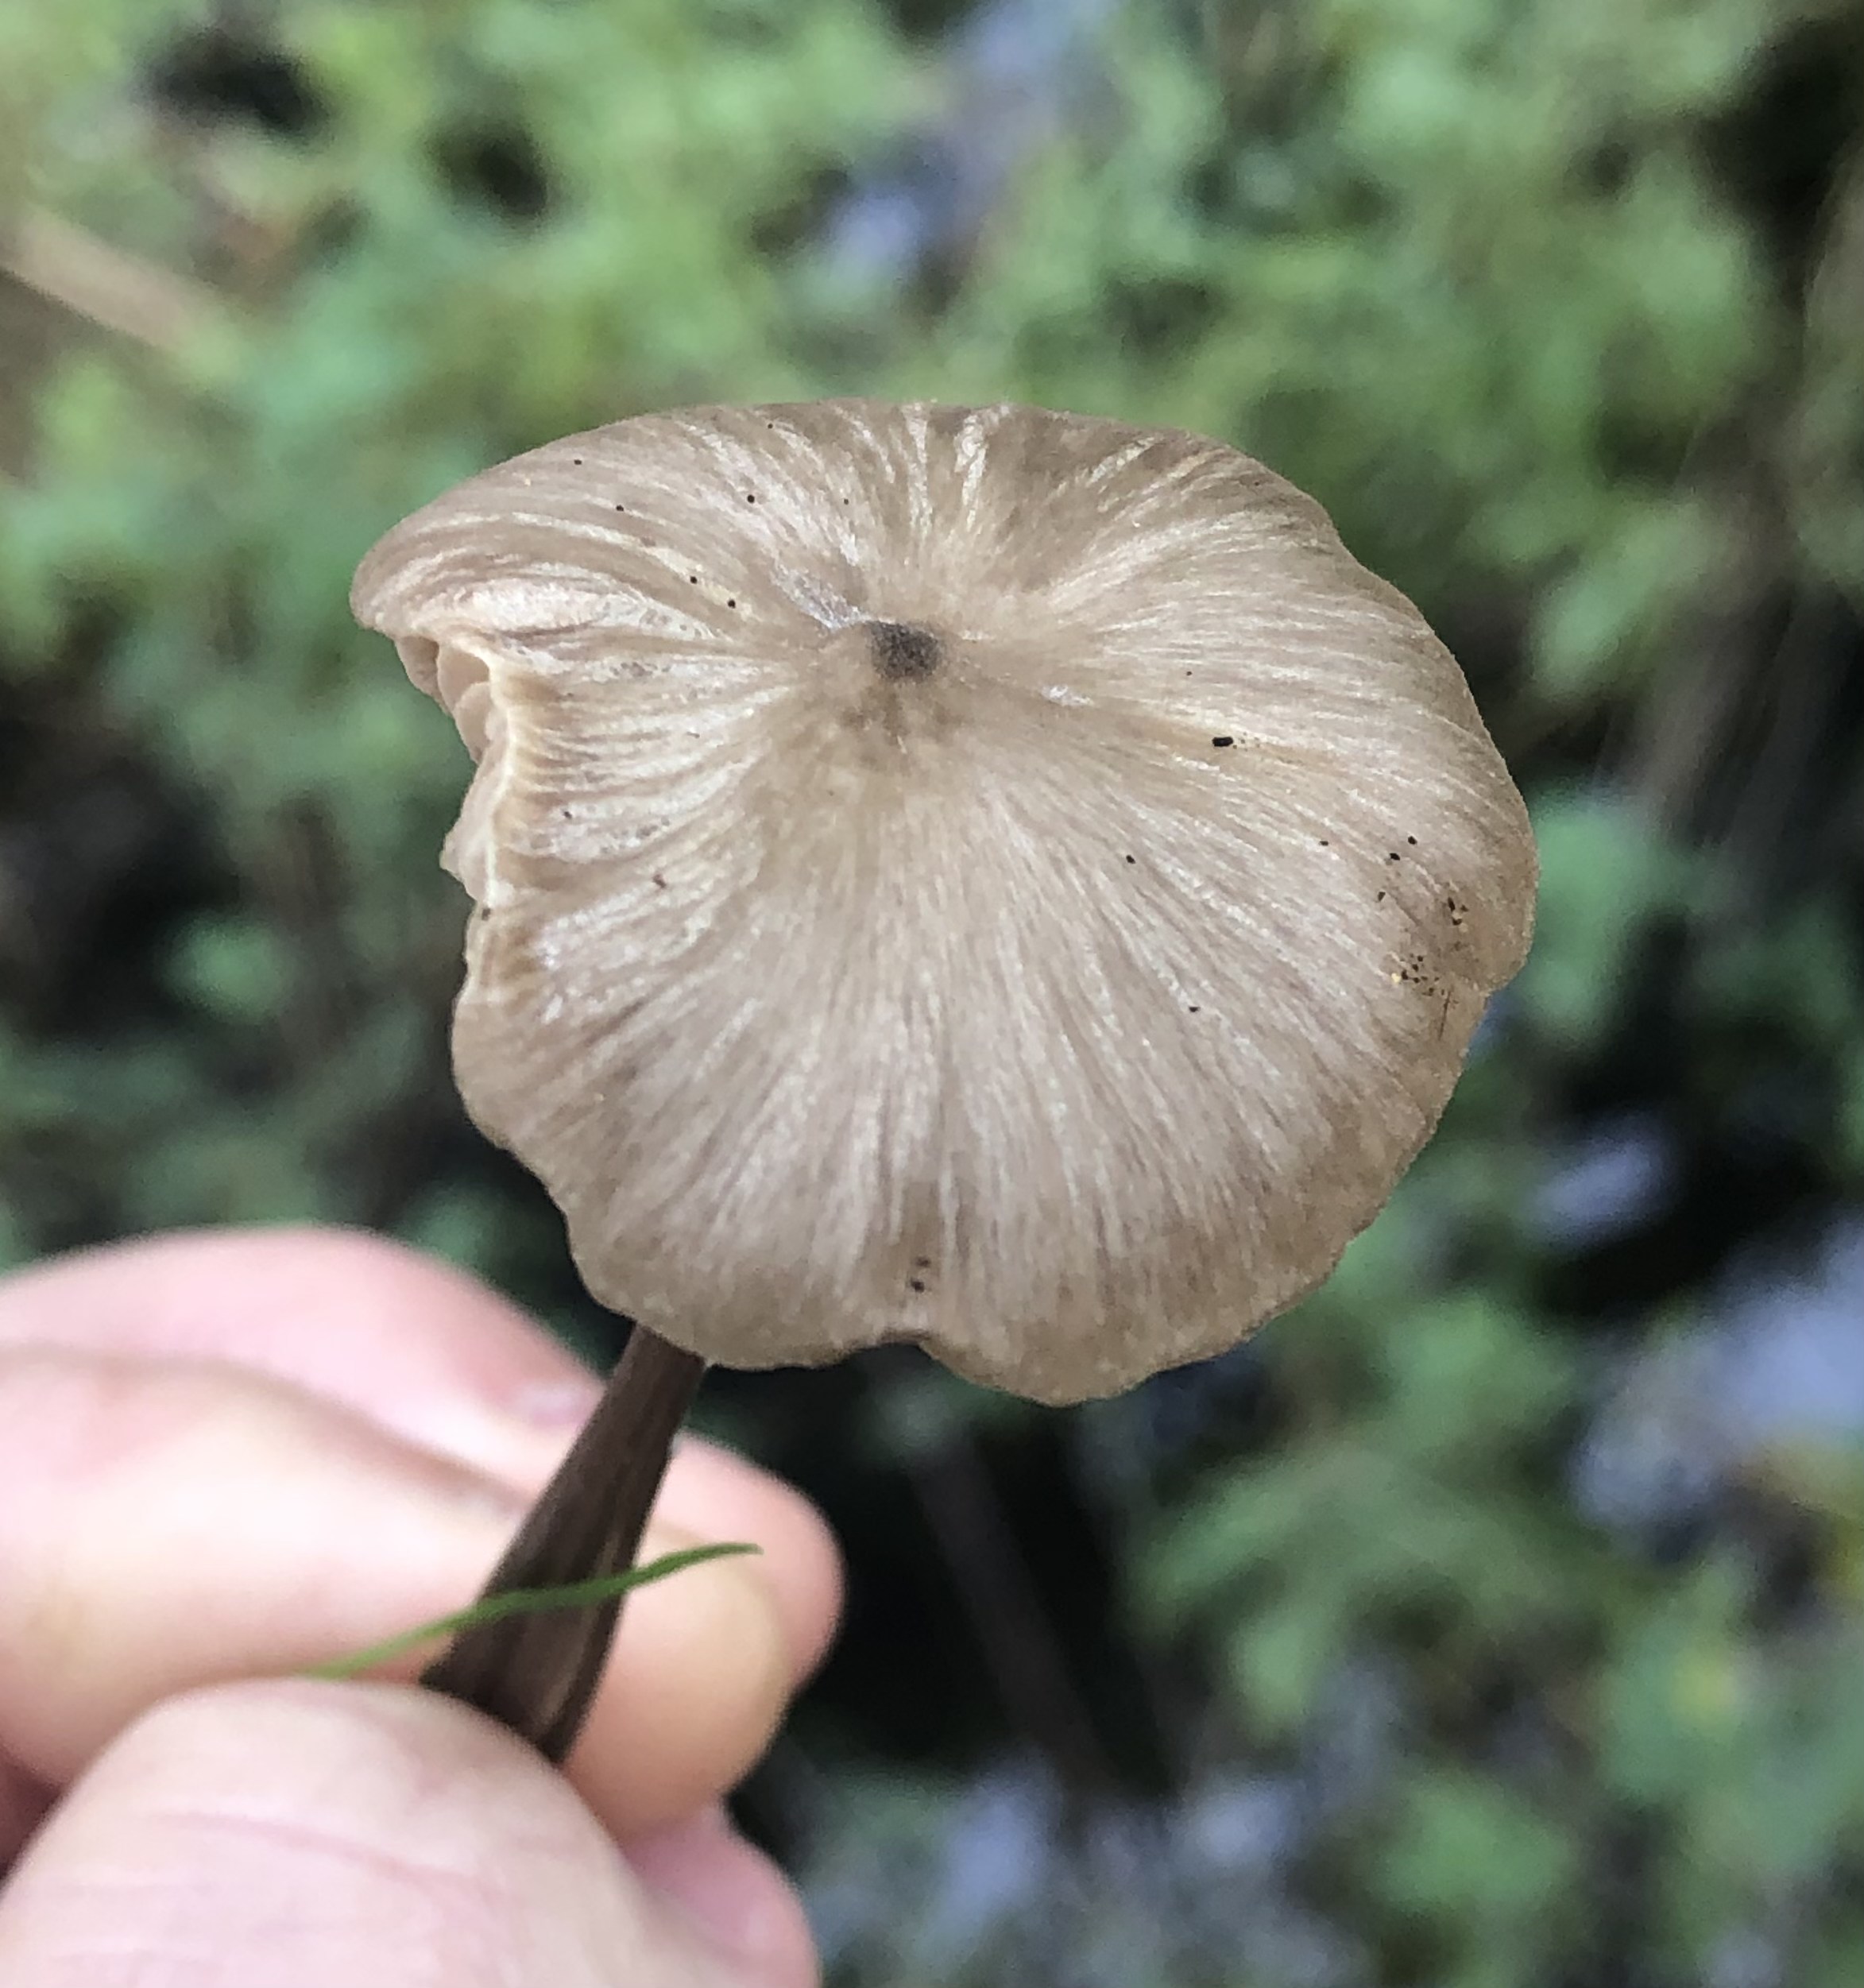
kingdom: Fungi
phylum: Basidiomycota
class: Agaricomycetes
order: Agaricales
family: Entolomataceae
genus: Entoloma
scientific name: Entoloma
